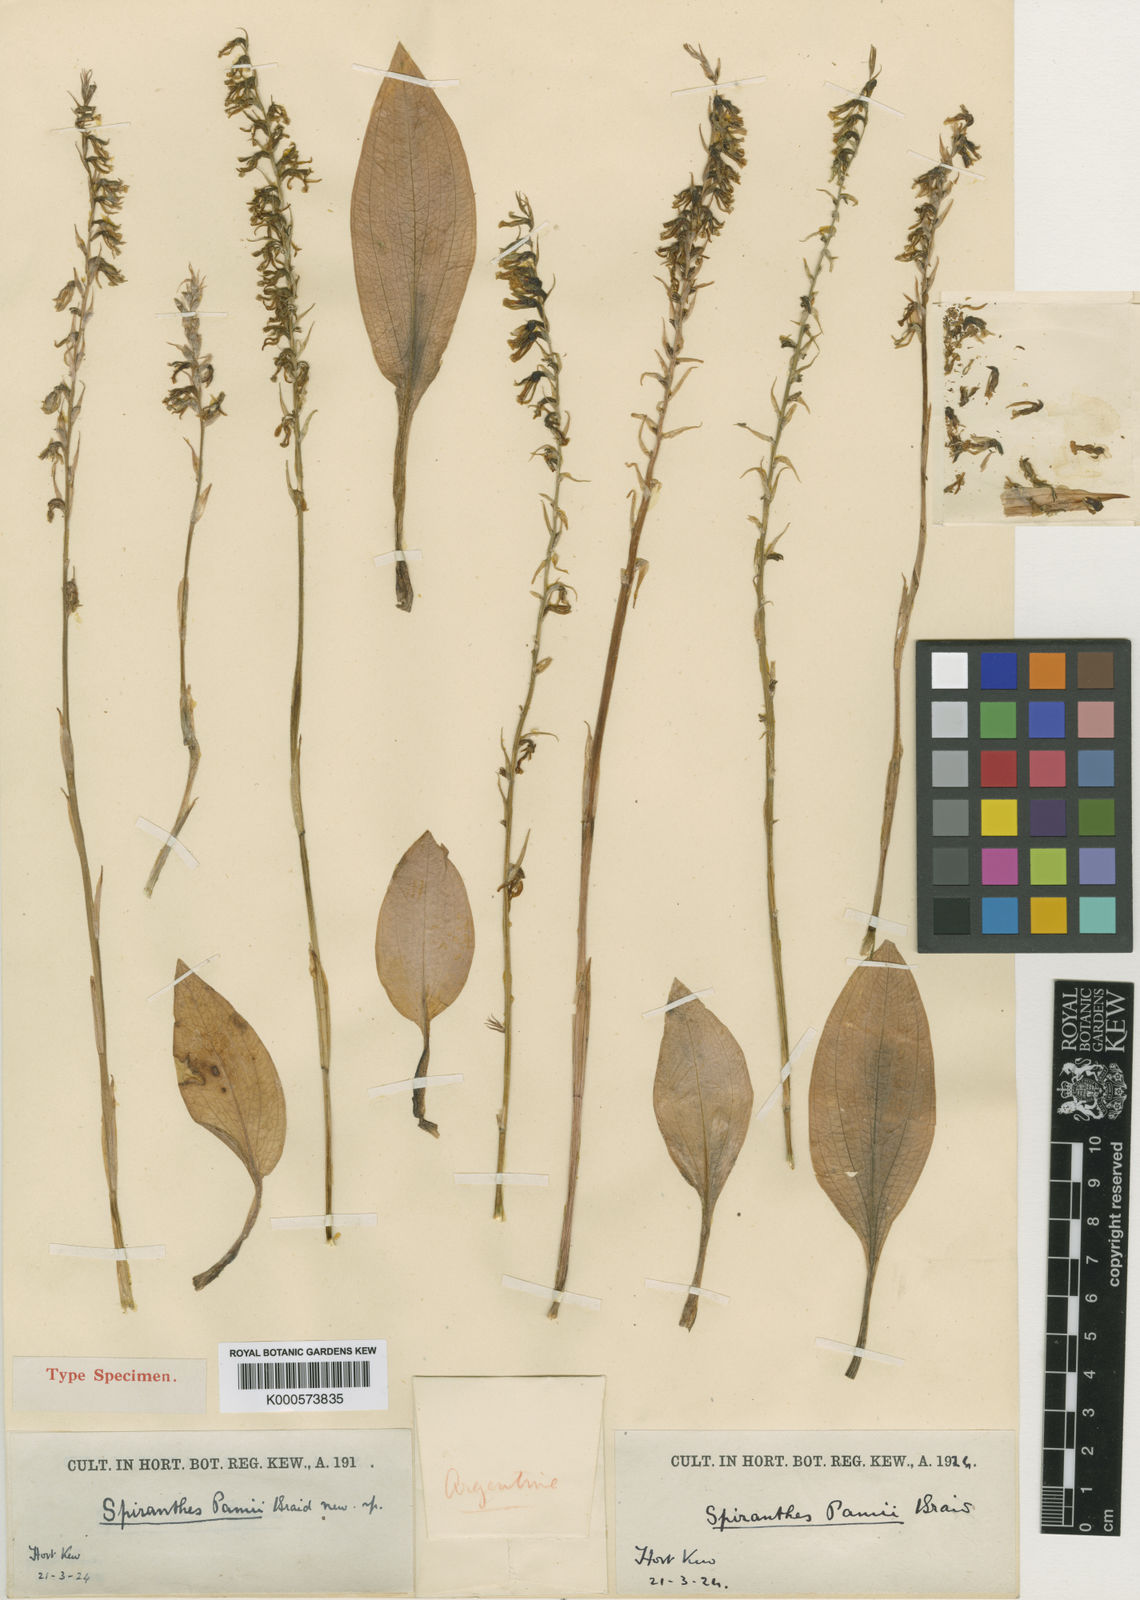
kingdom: Plantae
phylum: Tracheophyta
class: Liliopsida
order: Asparagales
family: Orchidaceae
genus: Cyclopogon
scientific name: Cyclopogon lindleyanus
